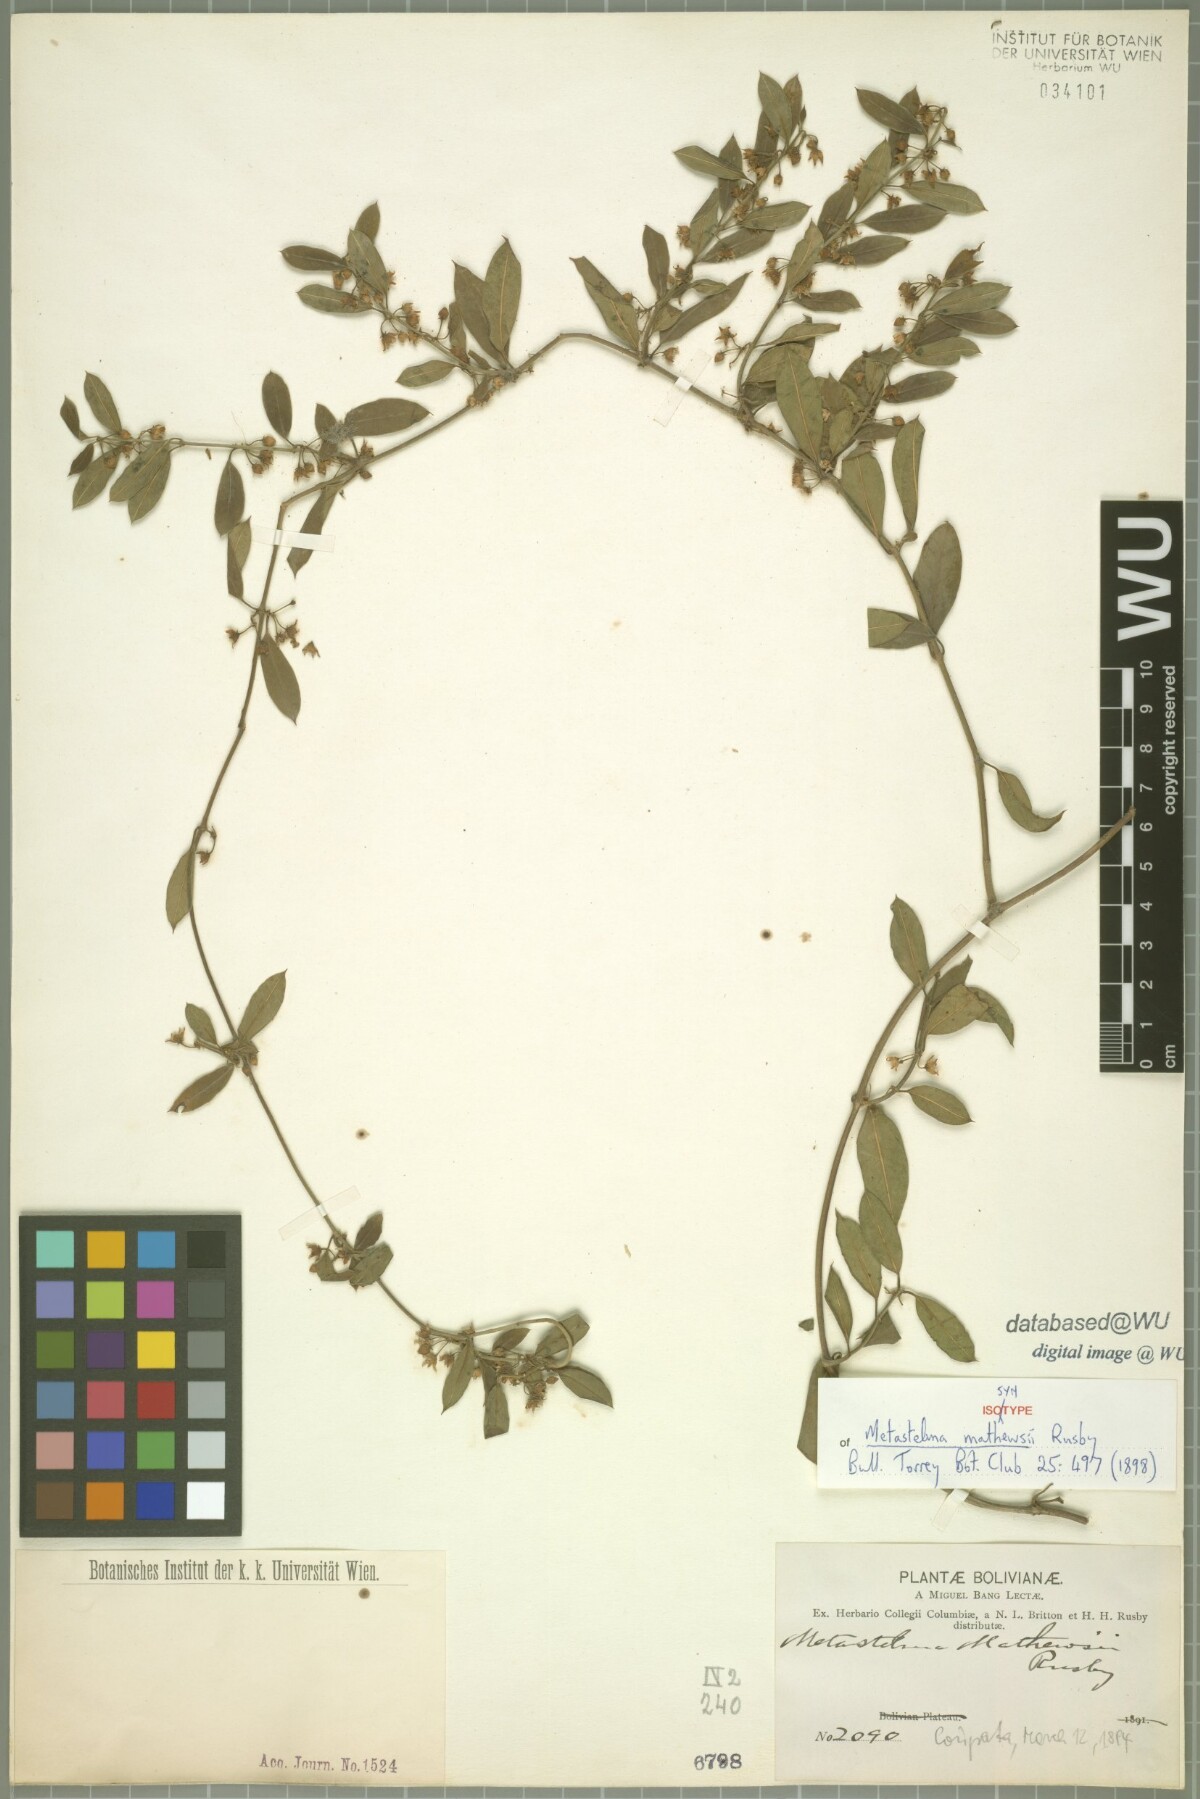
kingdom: Plantae
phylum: Tracheophyta
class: Magnoliopsida
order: Gentianales
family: Apocynaceae
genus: Metastelma
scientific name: Metastelma mathewsii
